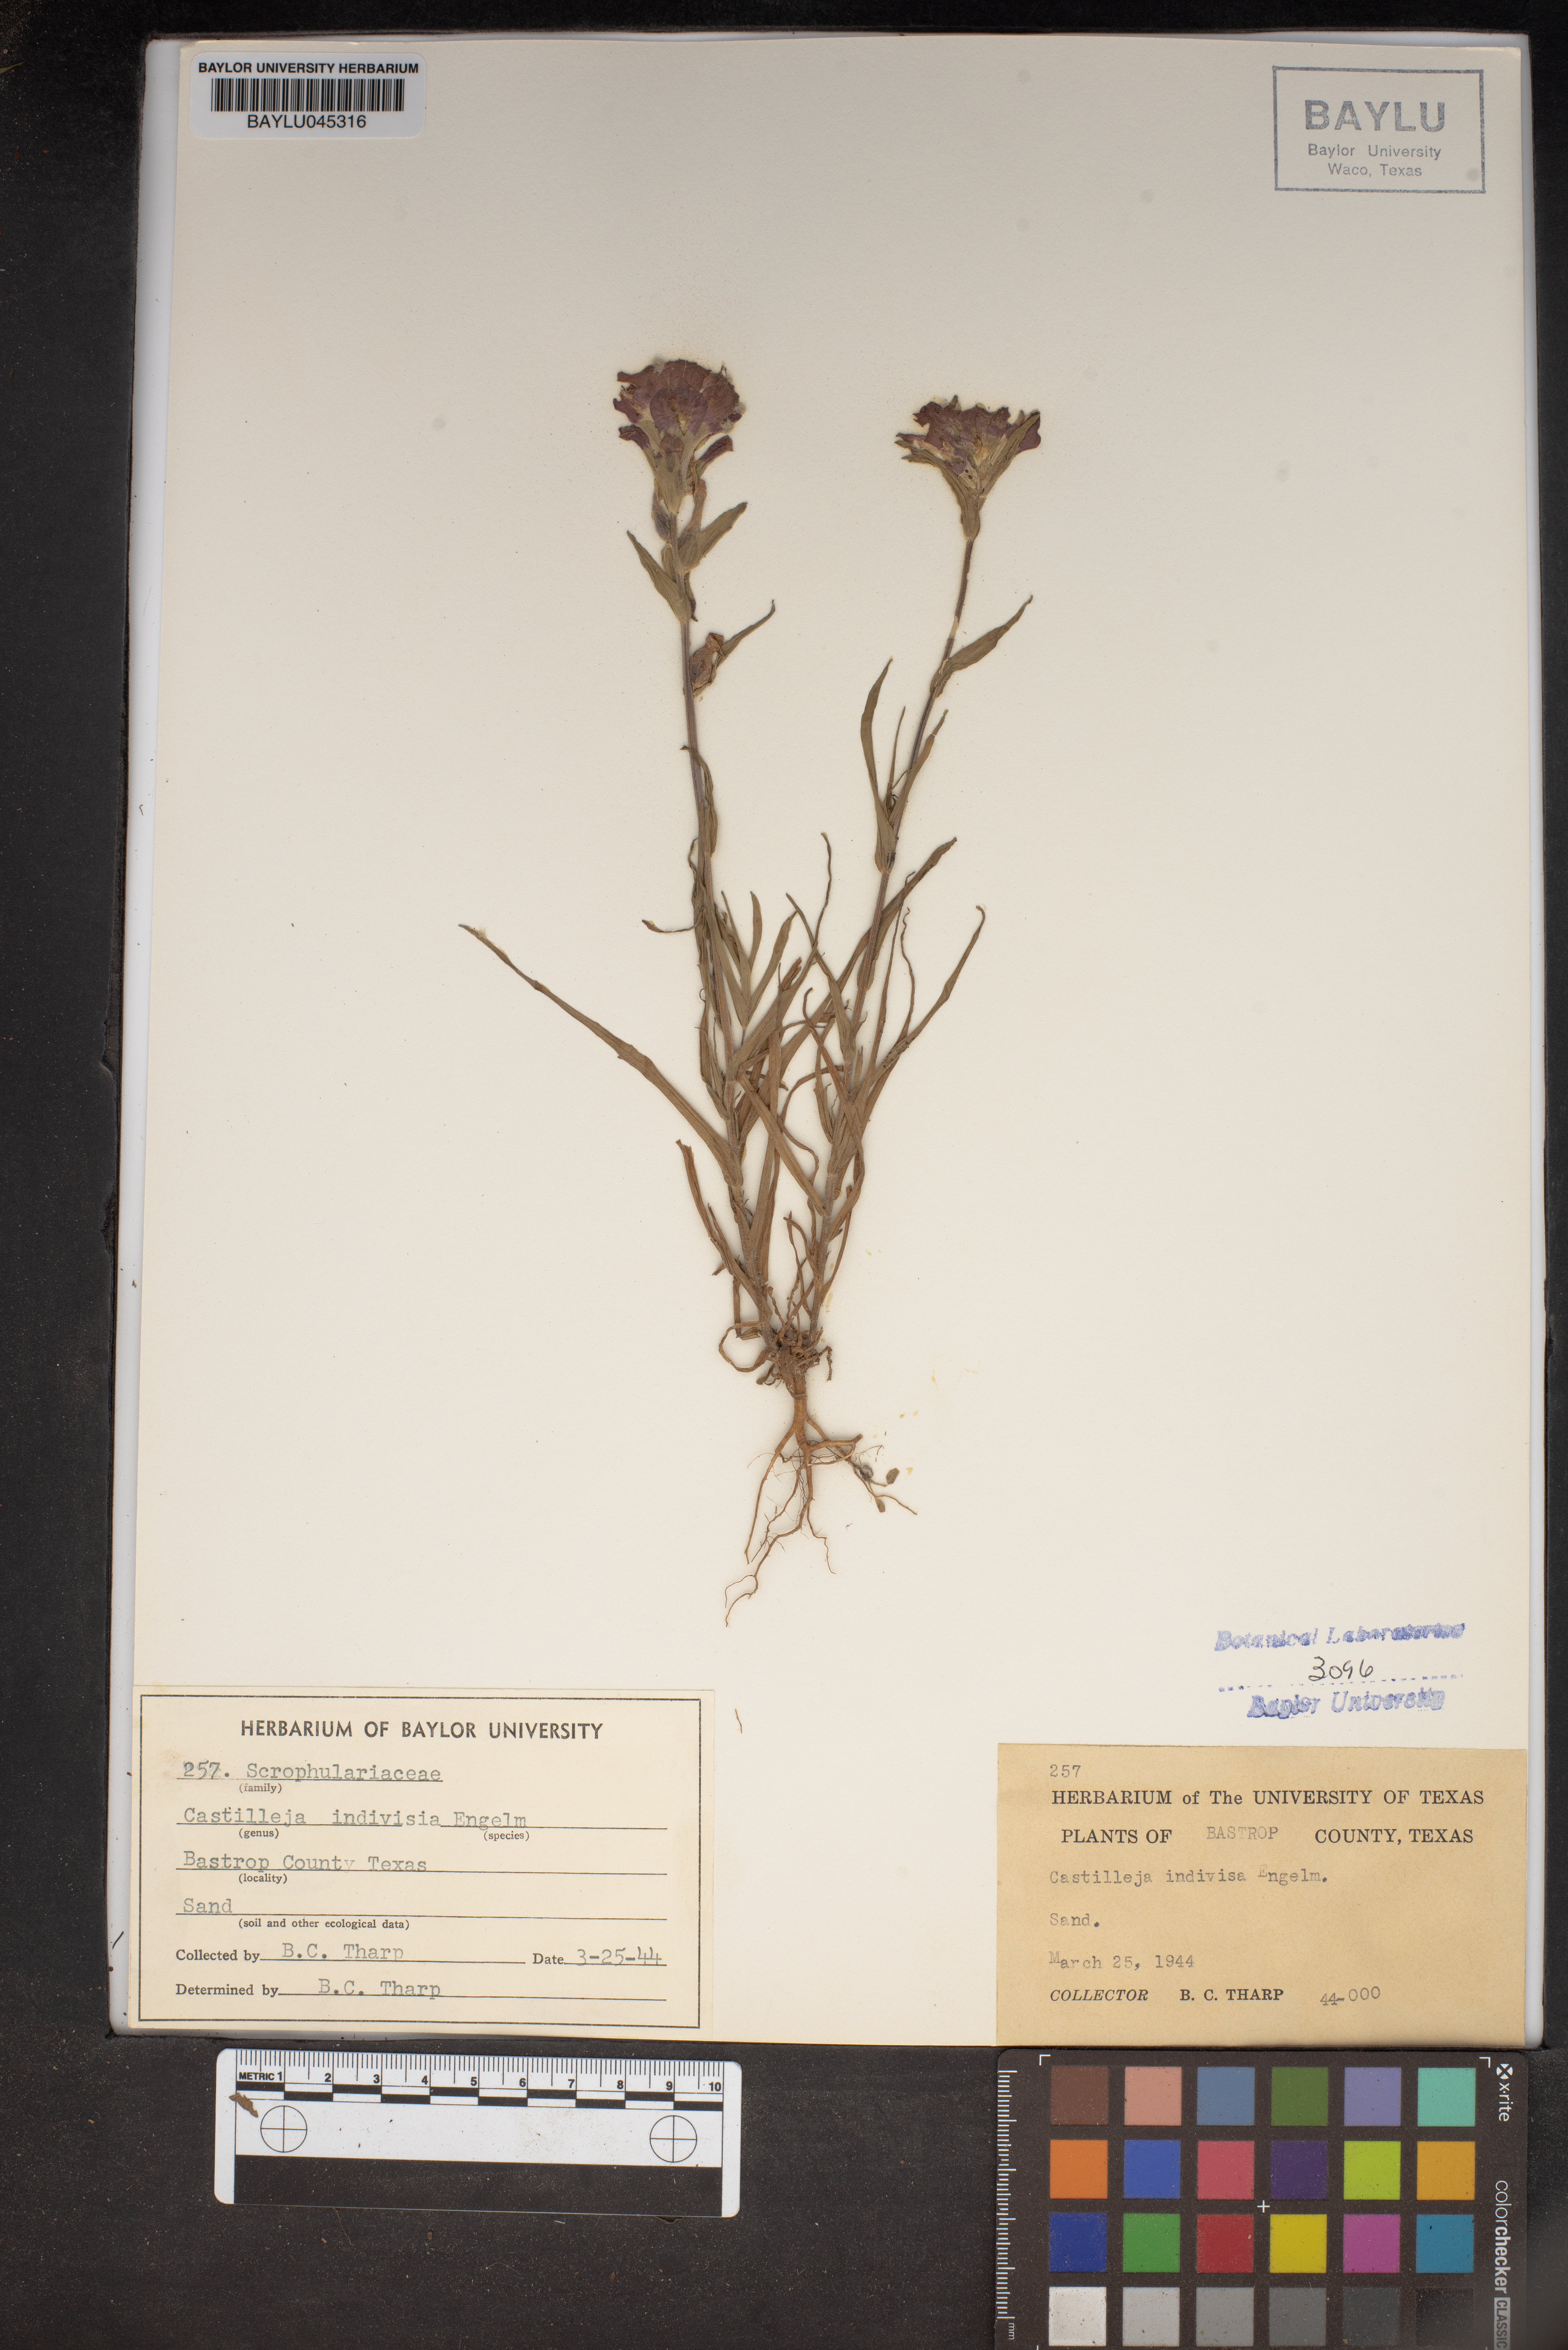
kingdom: Plantae
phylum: Tracheophyta
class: Magnoliopsida
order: Lamiales
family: Orobanchaceae
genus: Castilleja
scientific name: Castilleja indivisa
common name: Texas paintbrush
